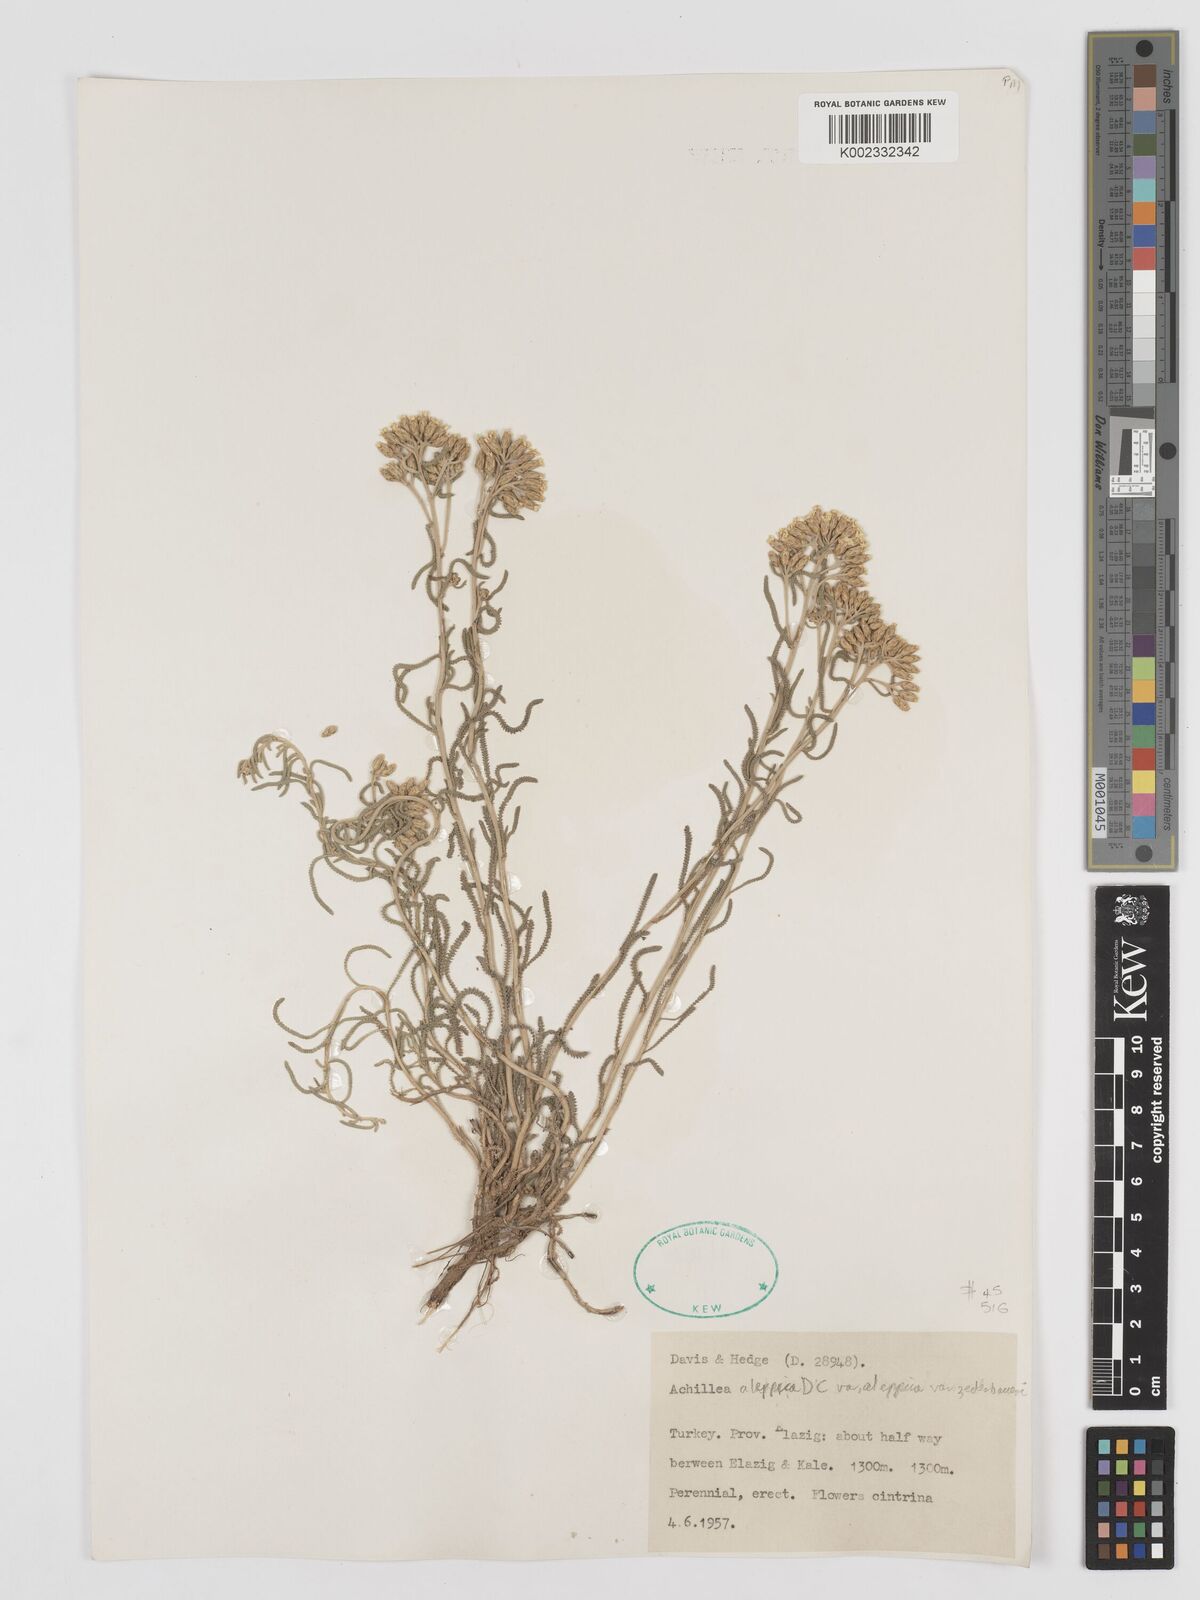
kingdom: Plantae
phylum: Tracheophyta
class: Magnoliopsida
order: Asterales
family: Asteraceae
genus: Achillea
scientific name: Achillea aleppica
